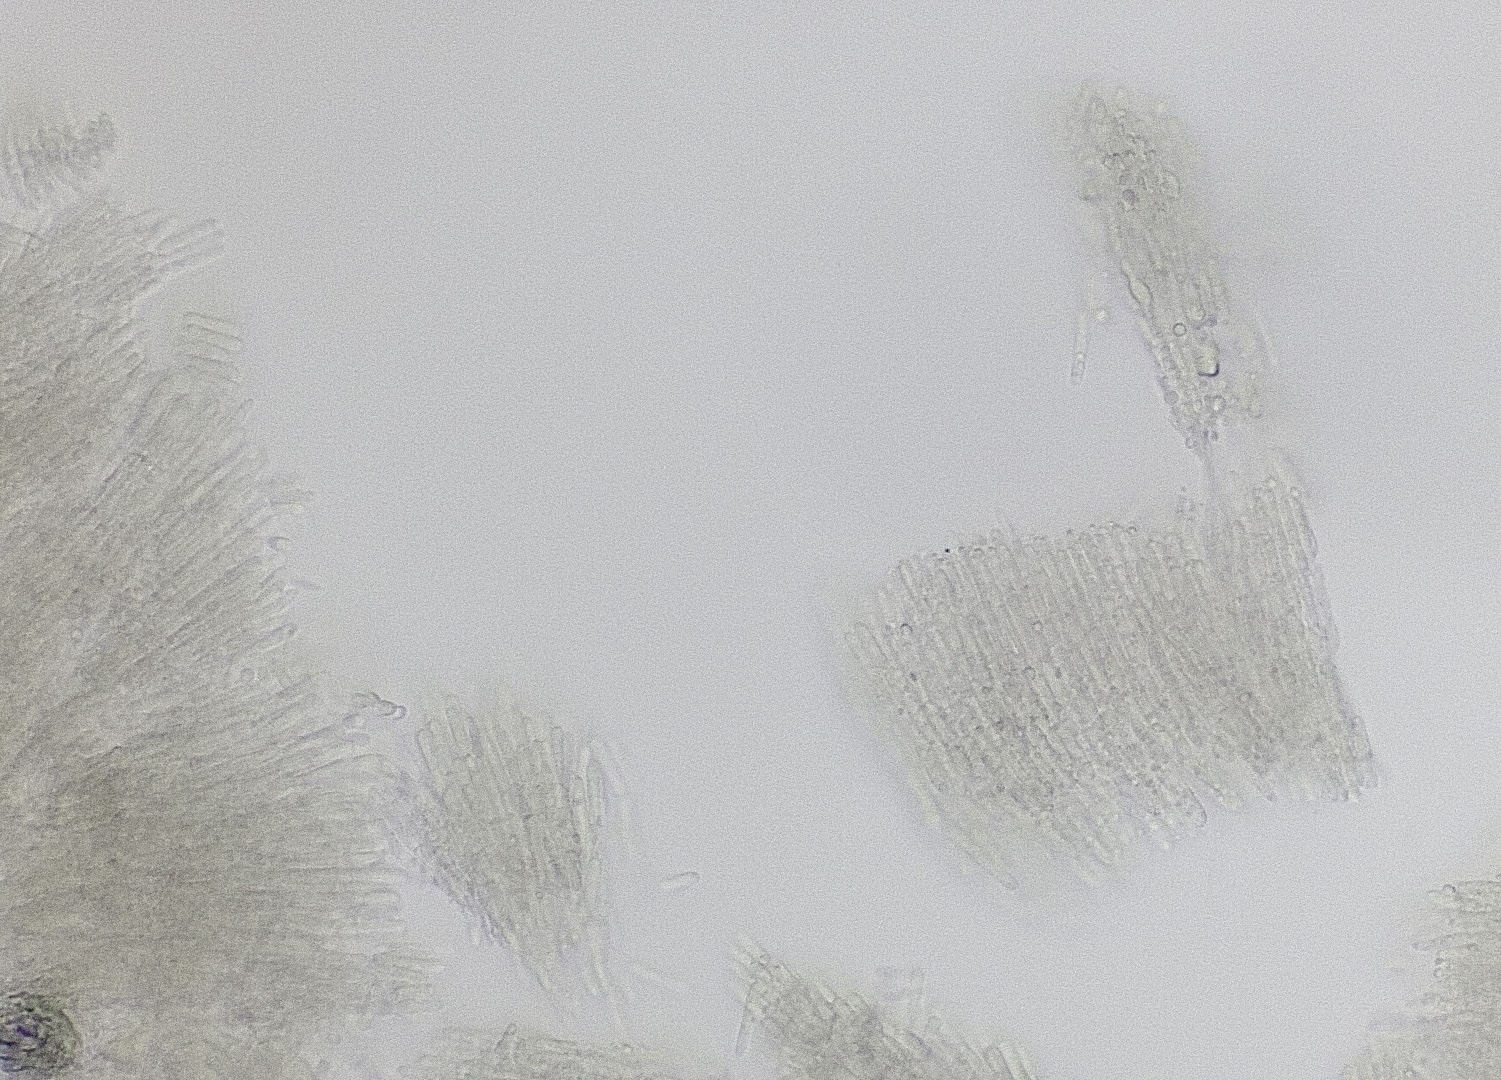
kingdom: Fungi
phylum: Ascomycota
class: Leotiomycetes
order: Helotiales
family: Helotiaceae
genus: Trichotheca
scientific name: Trichotheca alba
